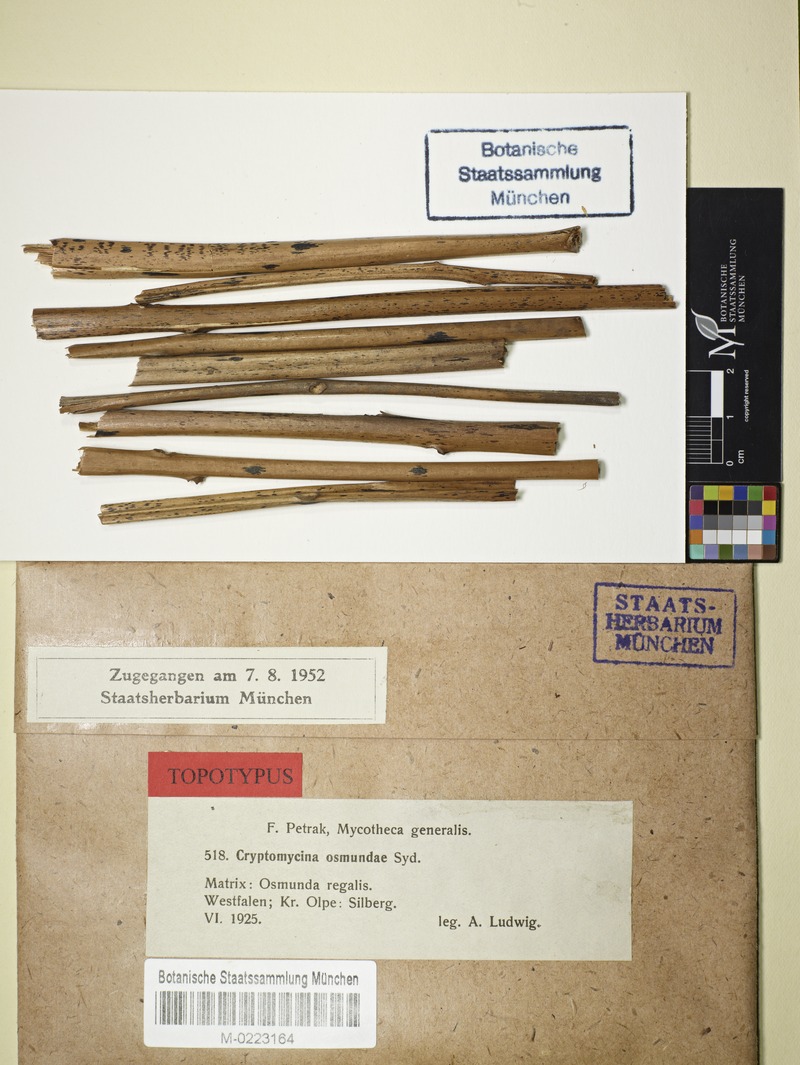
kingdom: Fungi
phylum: Ascomycota
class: Sordariomycetes
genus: Cryptomycina
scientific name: Cryptomycina filicina
